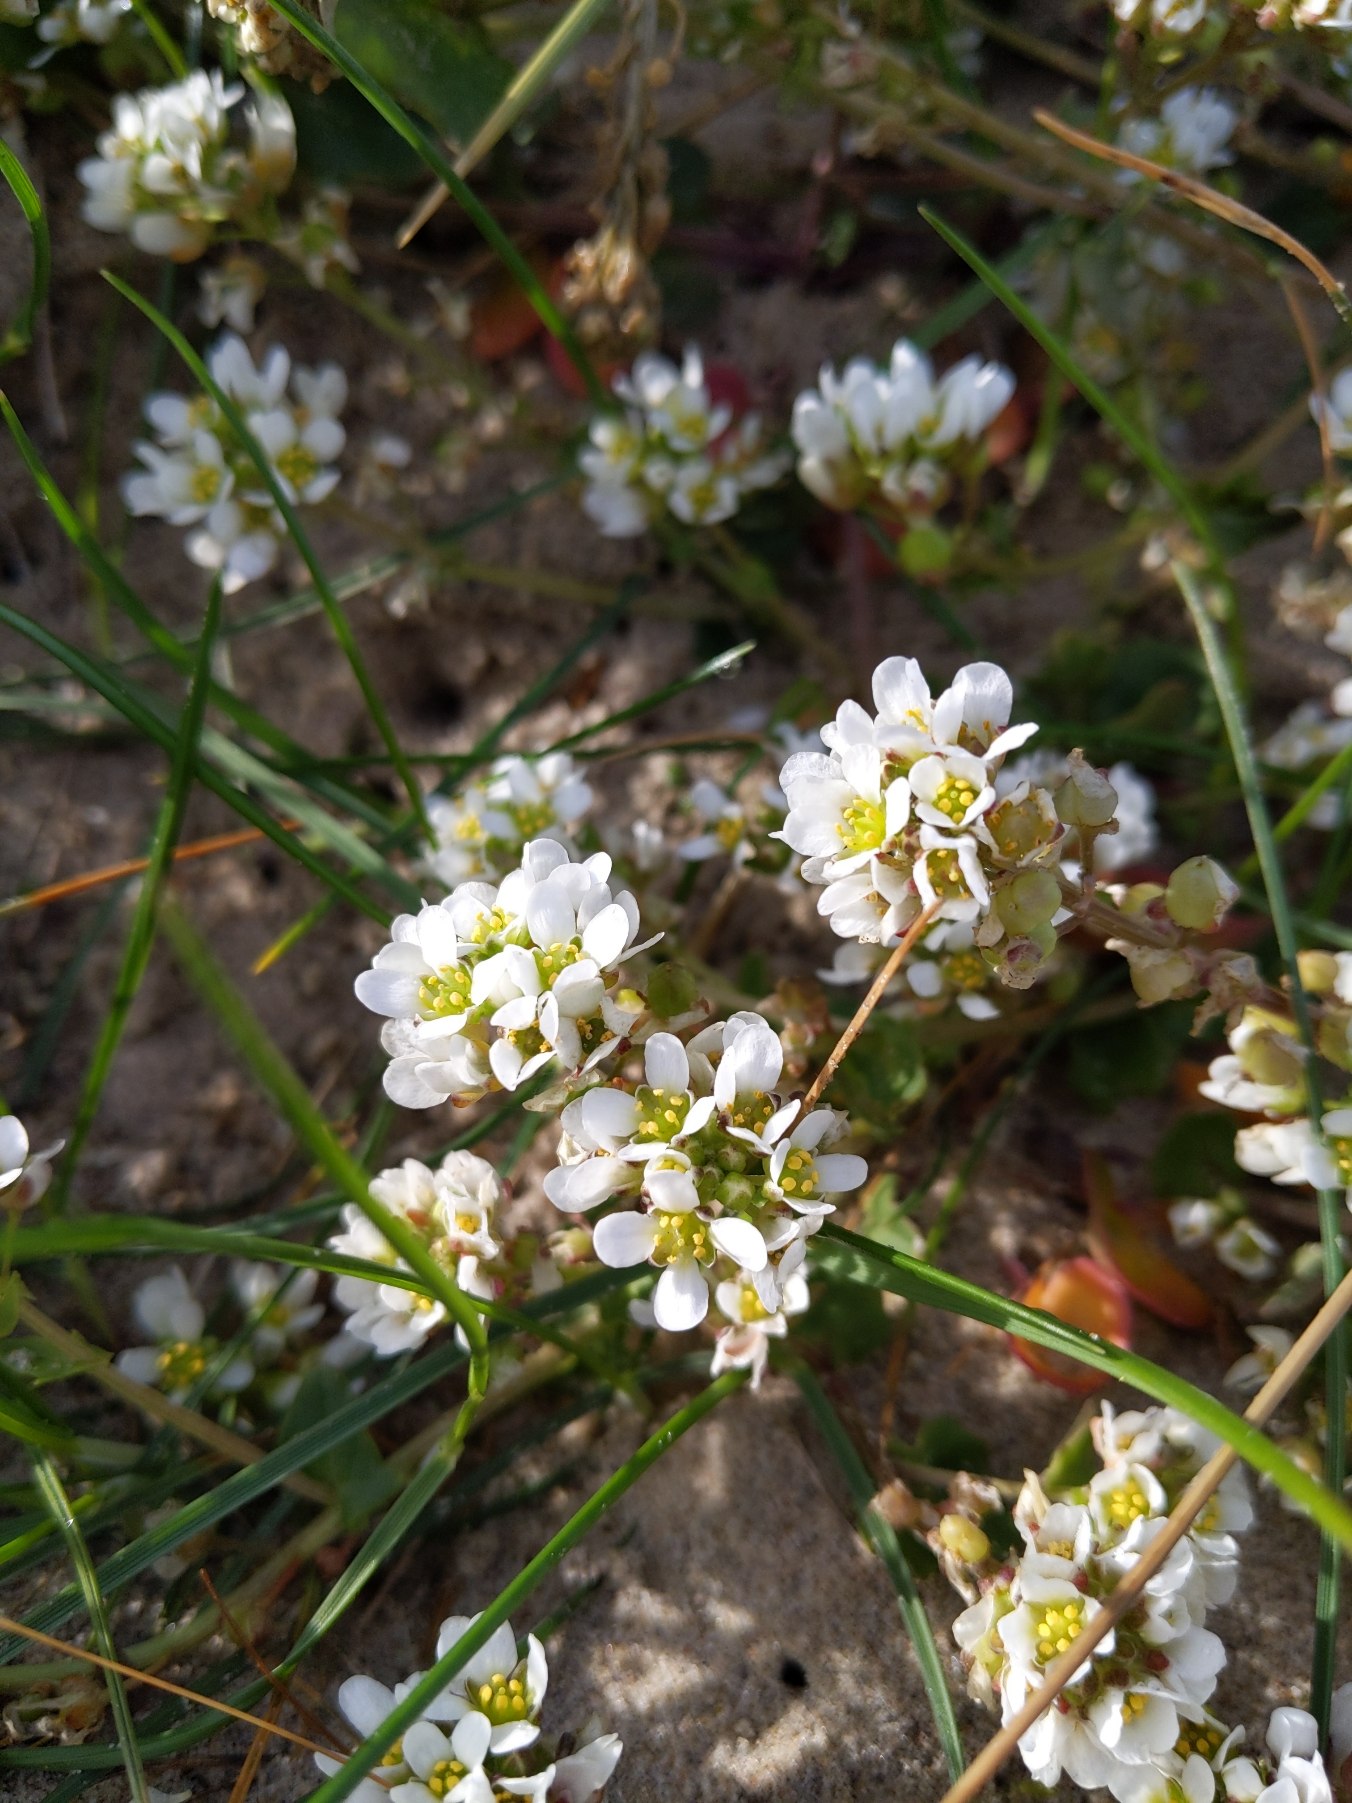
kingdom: Plantae
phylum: Tracheophyta
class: Magnoliopsida
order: Brassicales
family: Brassicaceae
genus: Cochlearia
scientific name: Cochlearia officinalis
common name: Læge-kokleare
